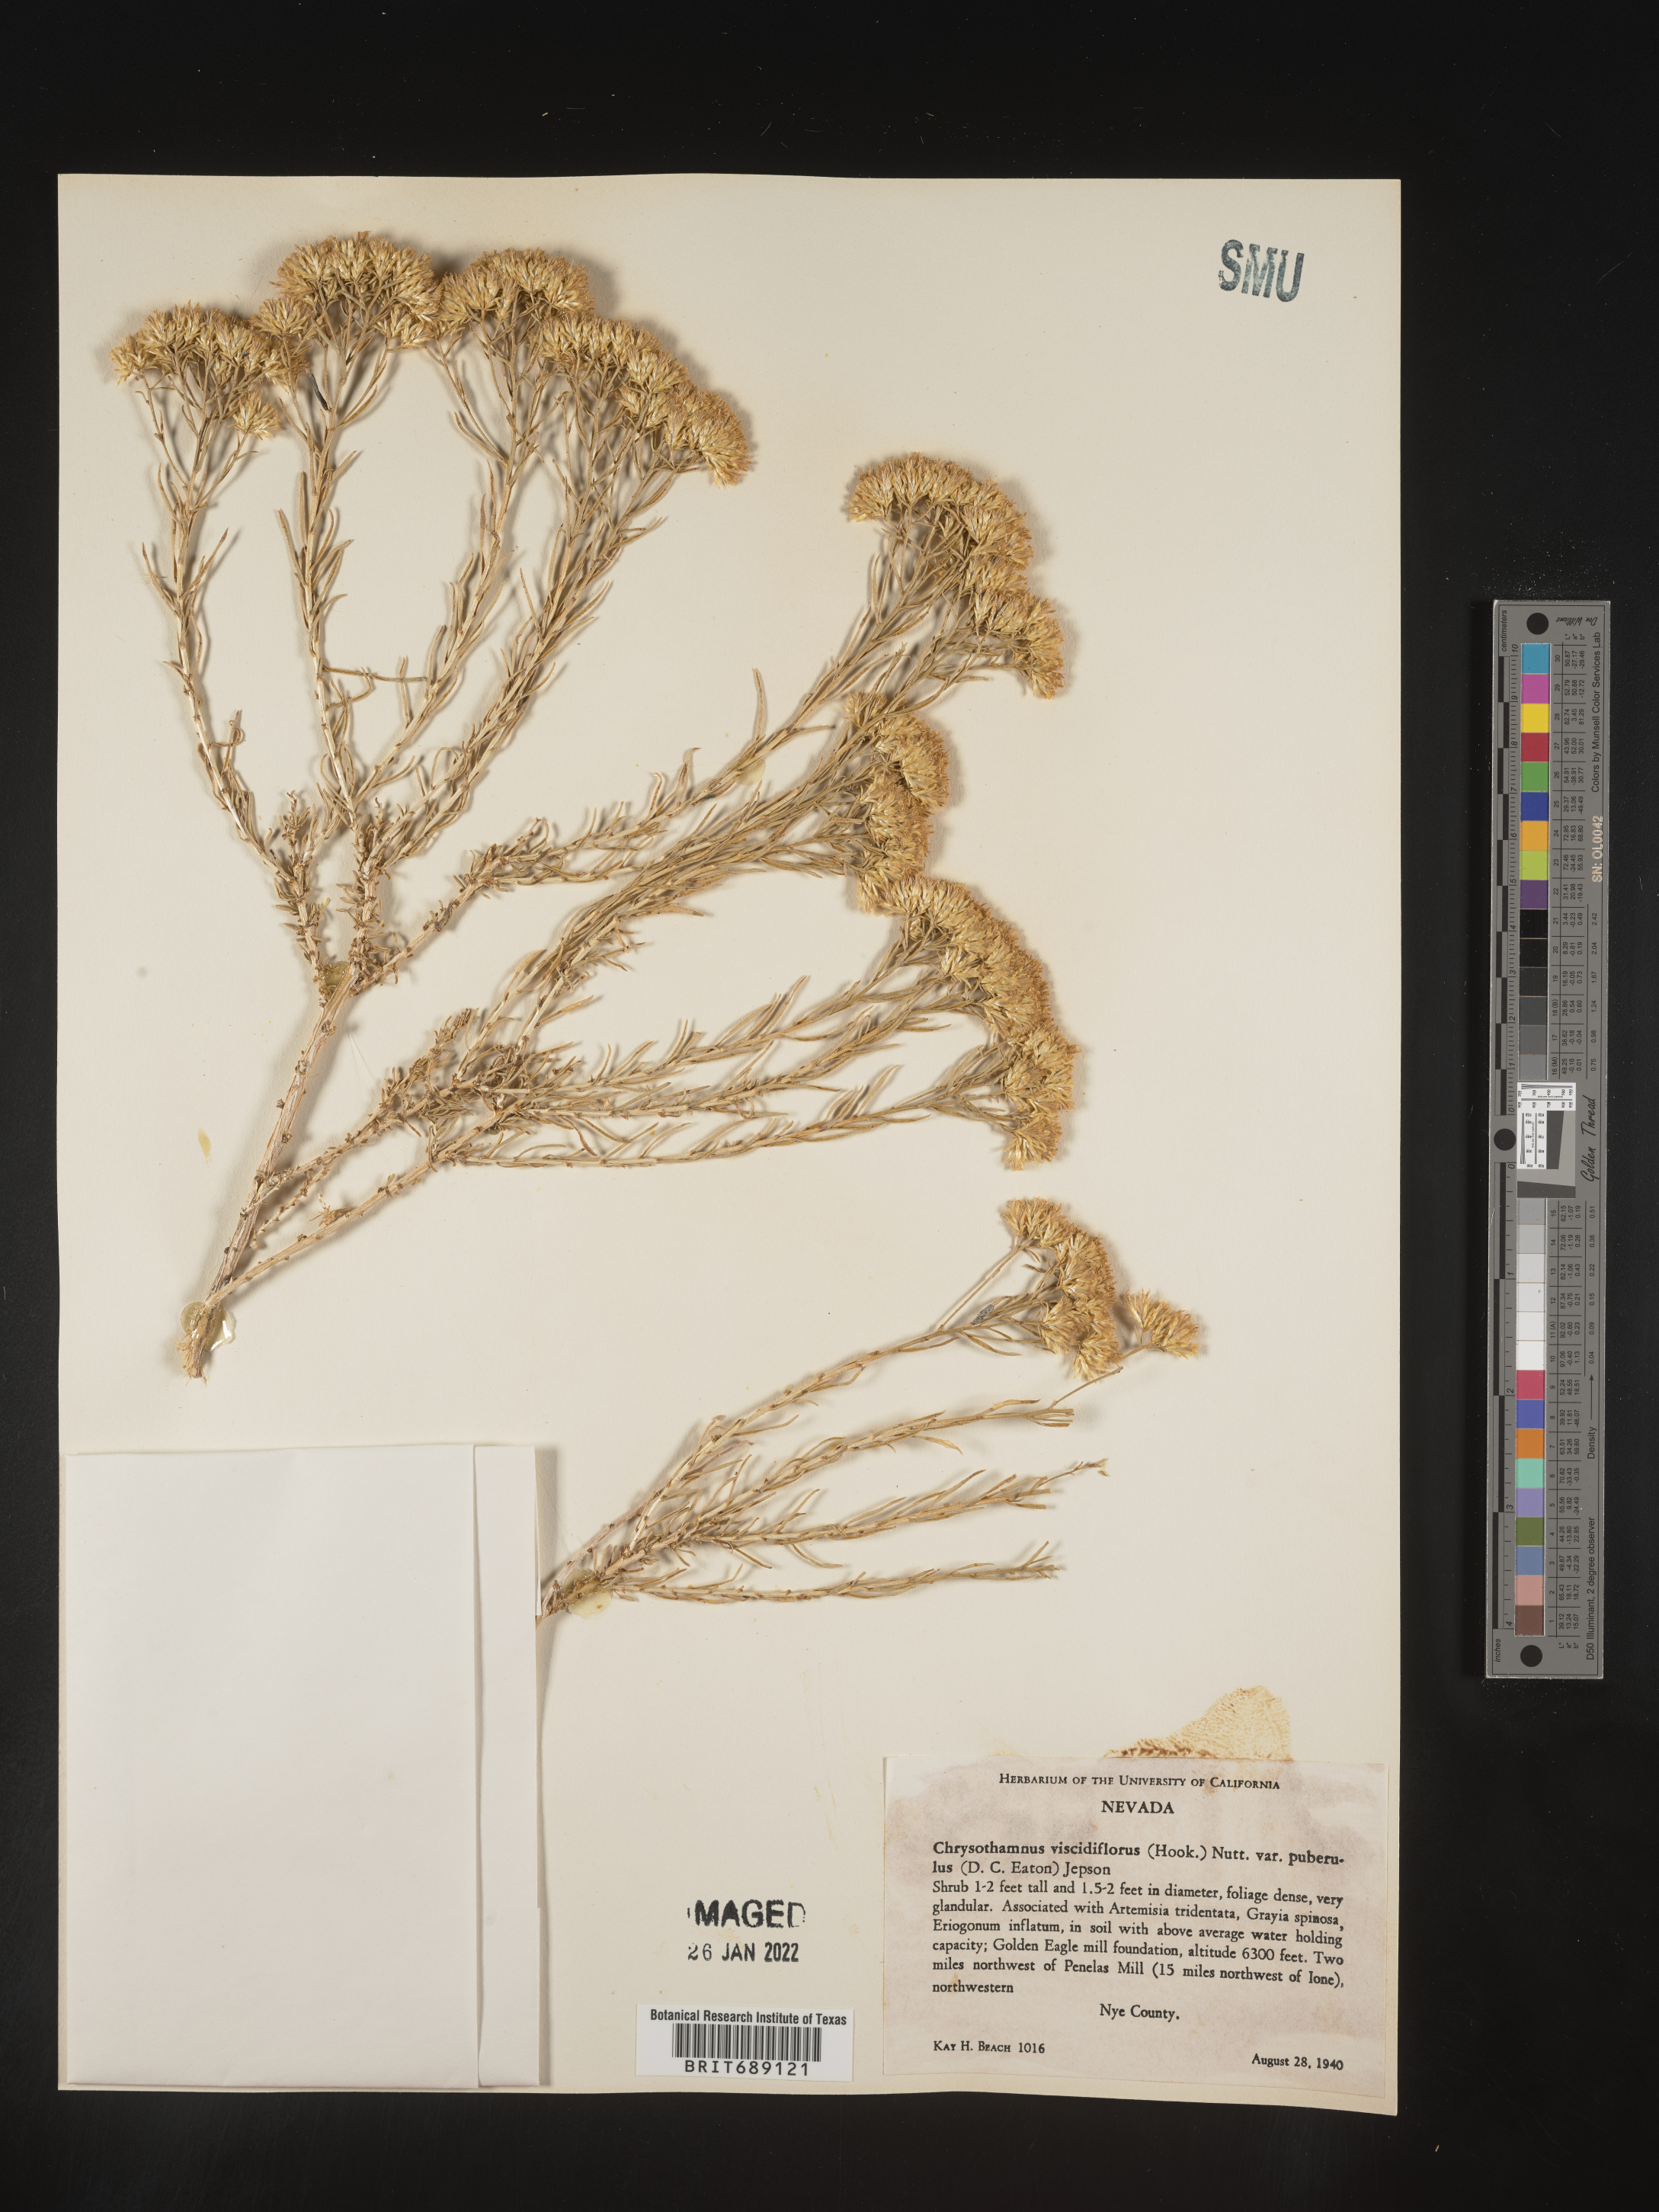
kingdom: Plantae
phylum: Tracheophyta
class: Magnoliopsida
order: Asterales
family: Asteraceae
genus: Chrysothamnus
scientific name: Chrysothamnus viscidiflorus
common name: Yellow rabbitbrush
